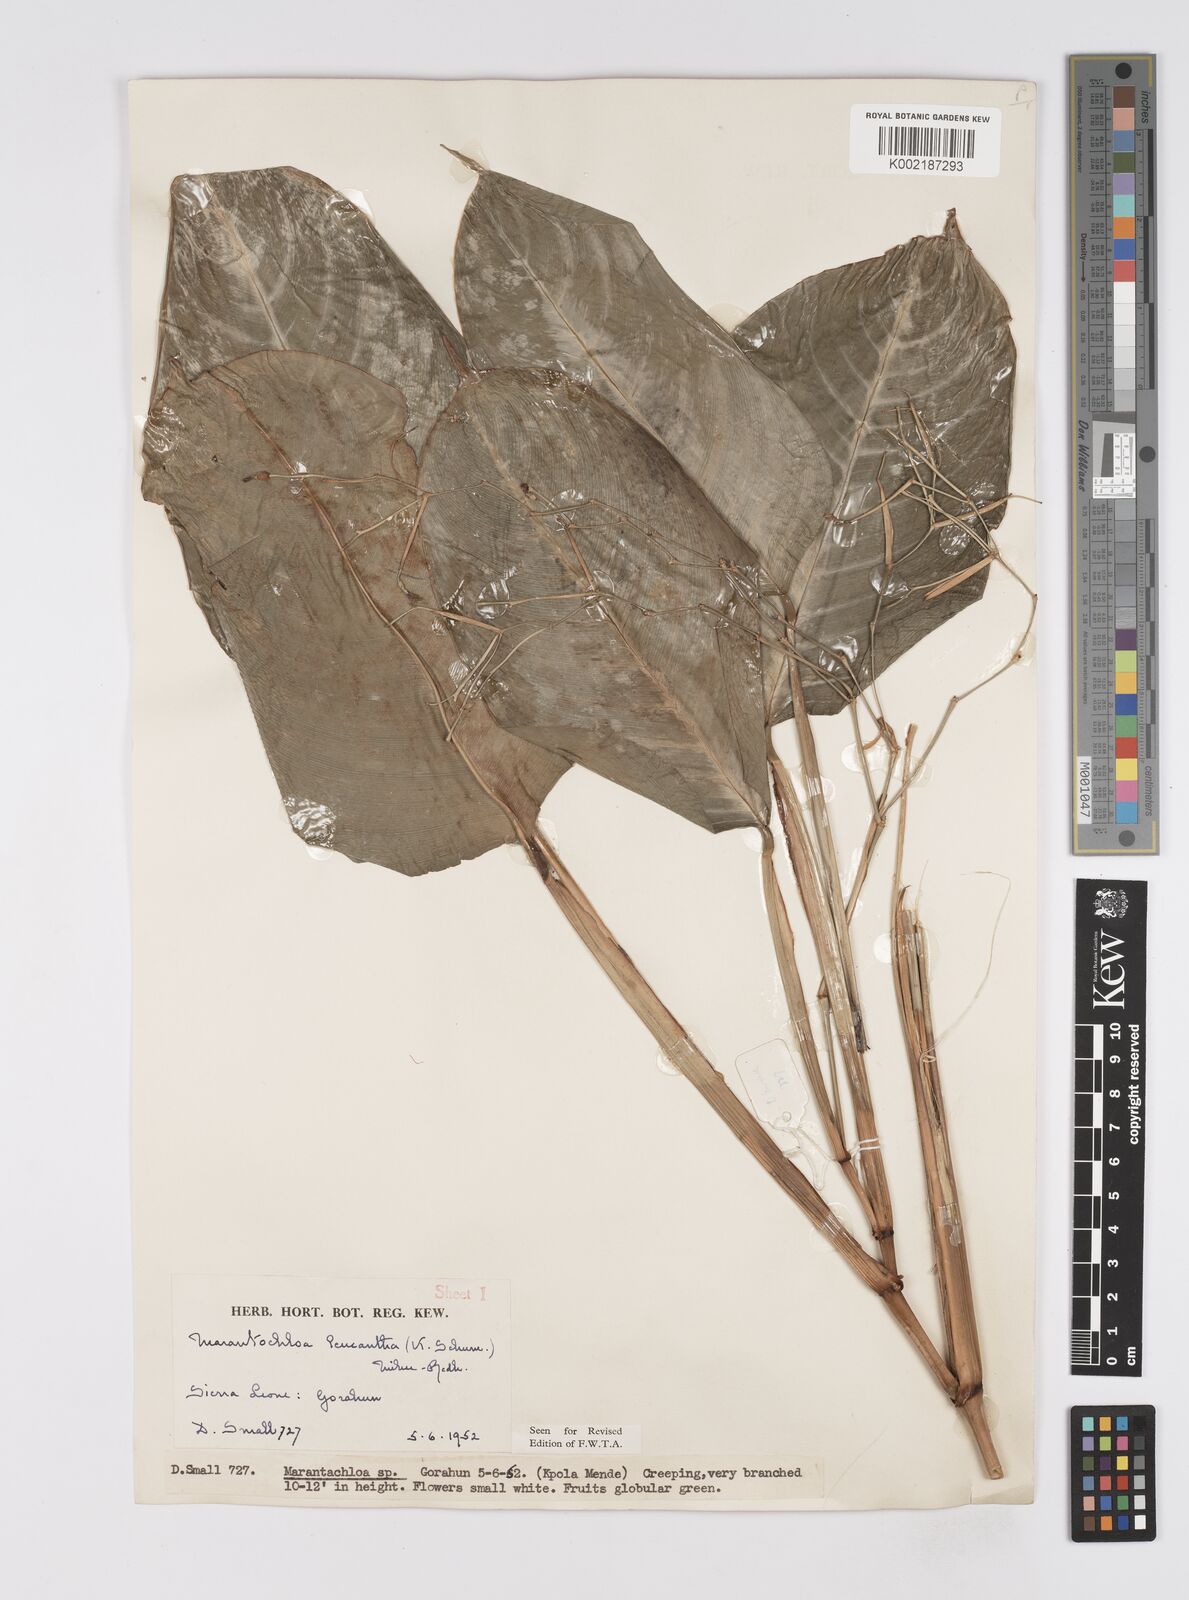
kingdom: Plantae
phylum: Tracheophyta
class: Liliopsida
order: Zingiberales
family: Marantaceae
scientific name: Marantaceae
